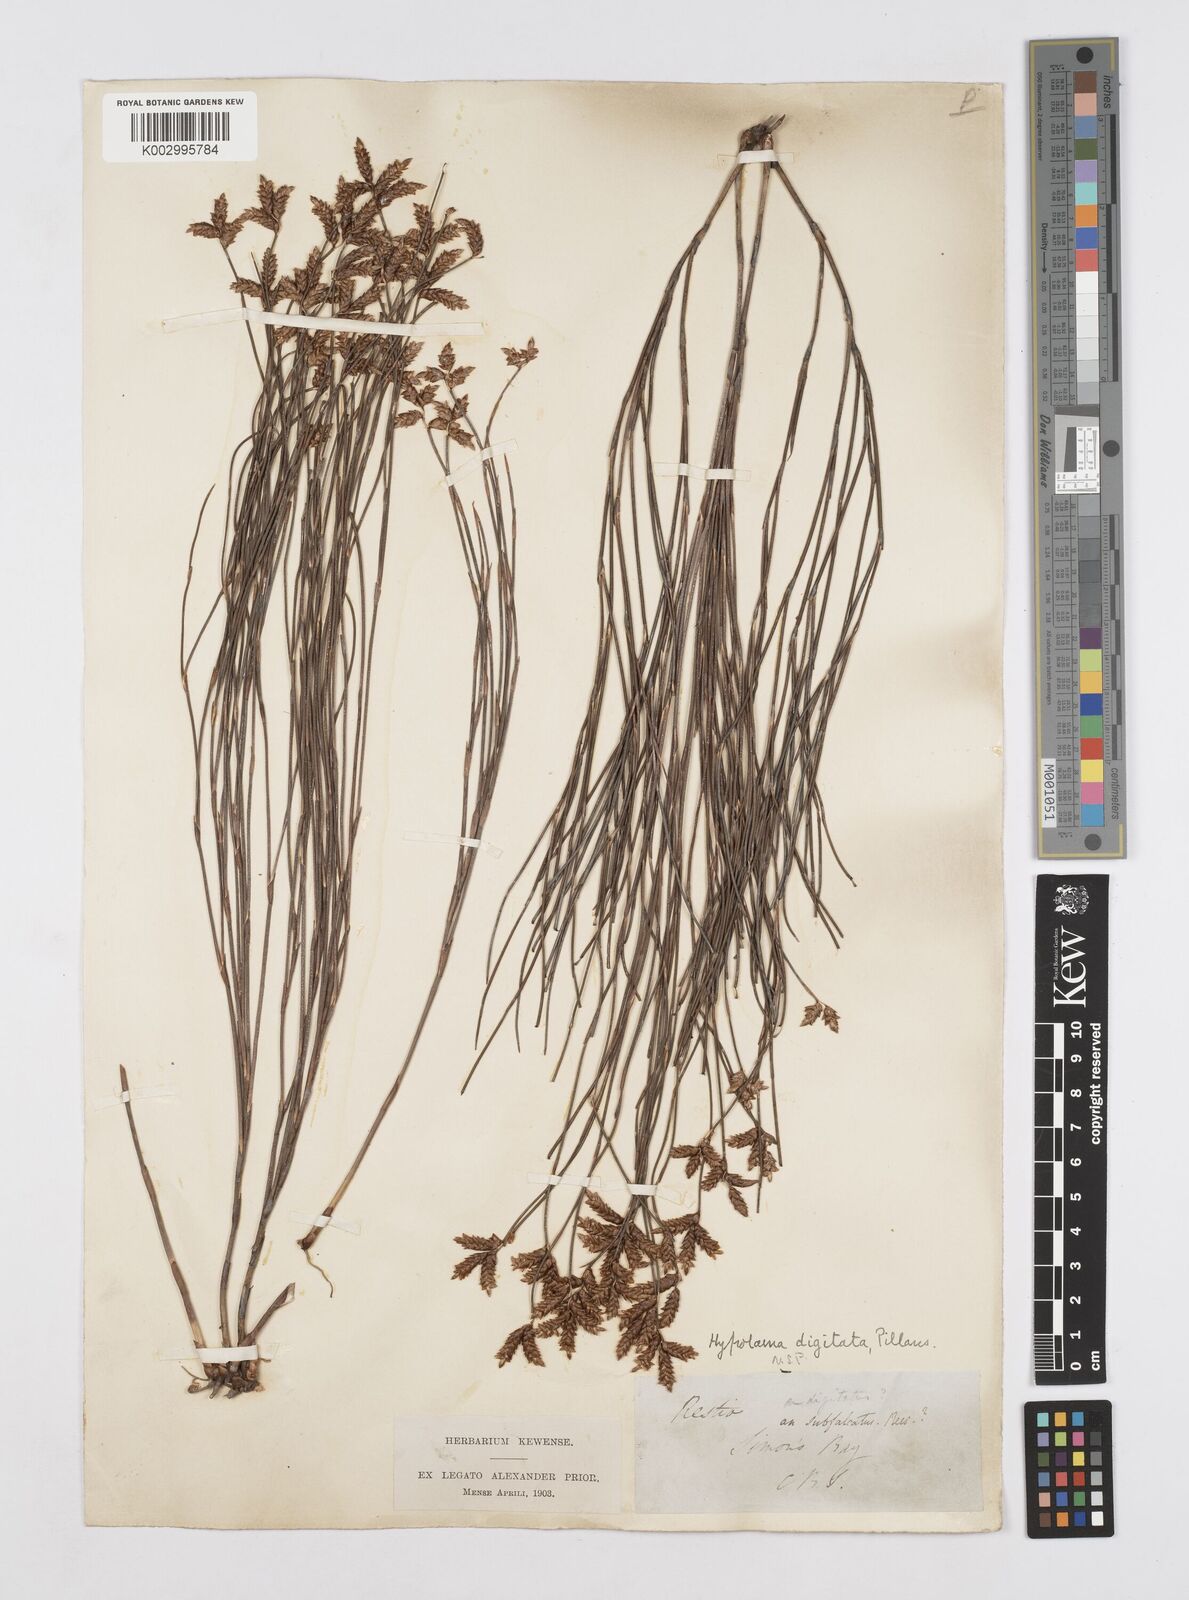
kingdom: Plantae
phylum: Tracheophyta
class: Liliopsida
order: Poales
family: Restionaceae
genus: Mastersiella
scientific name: Mastersiella digitata
